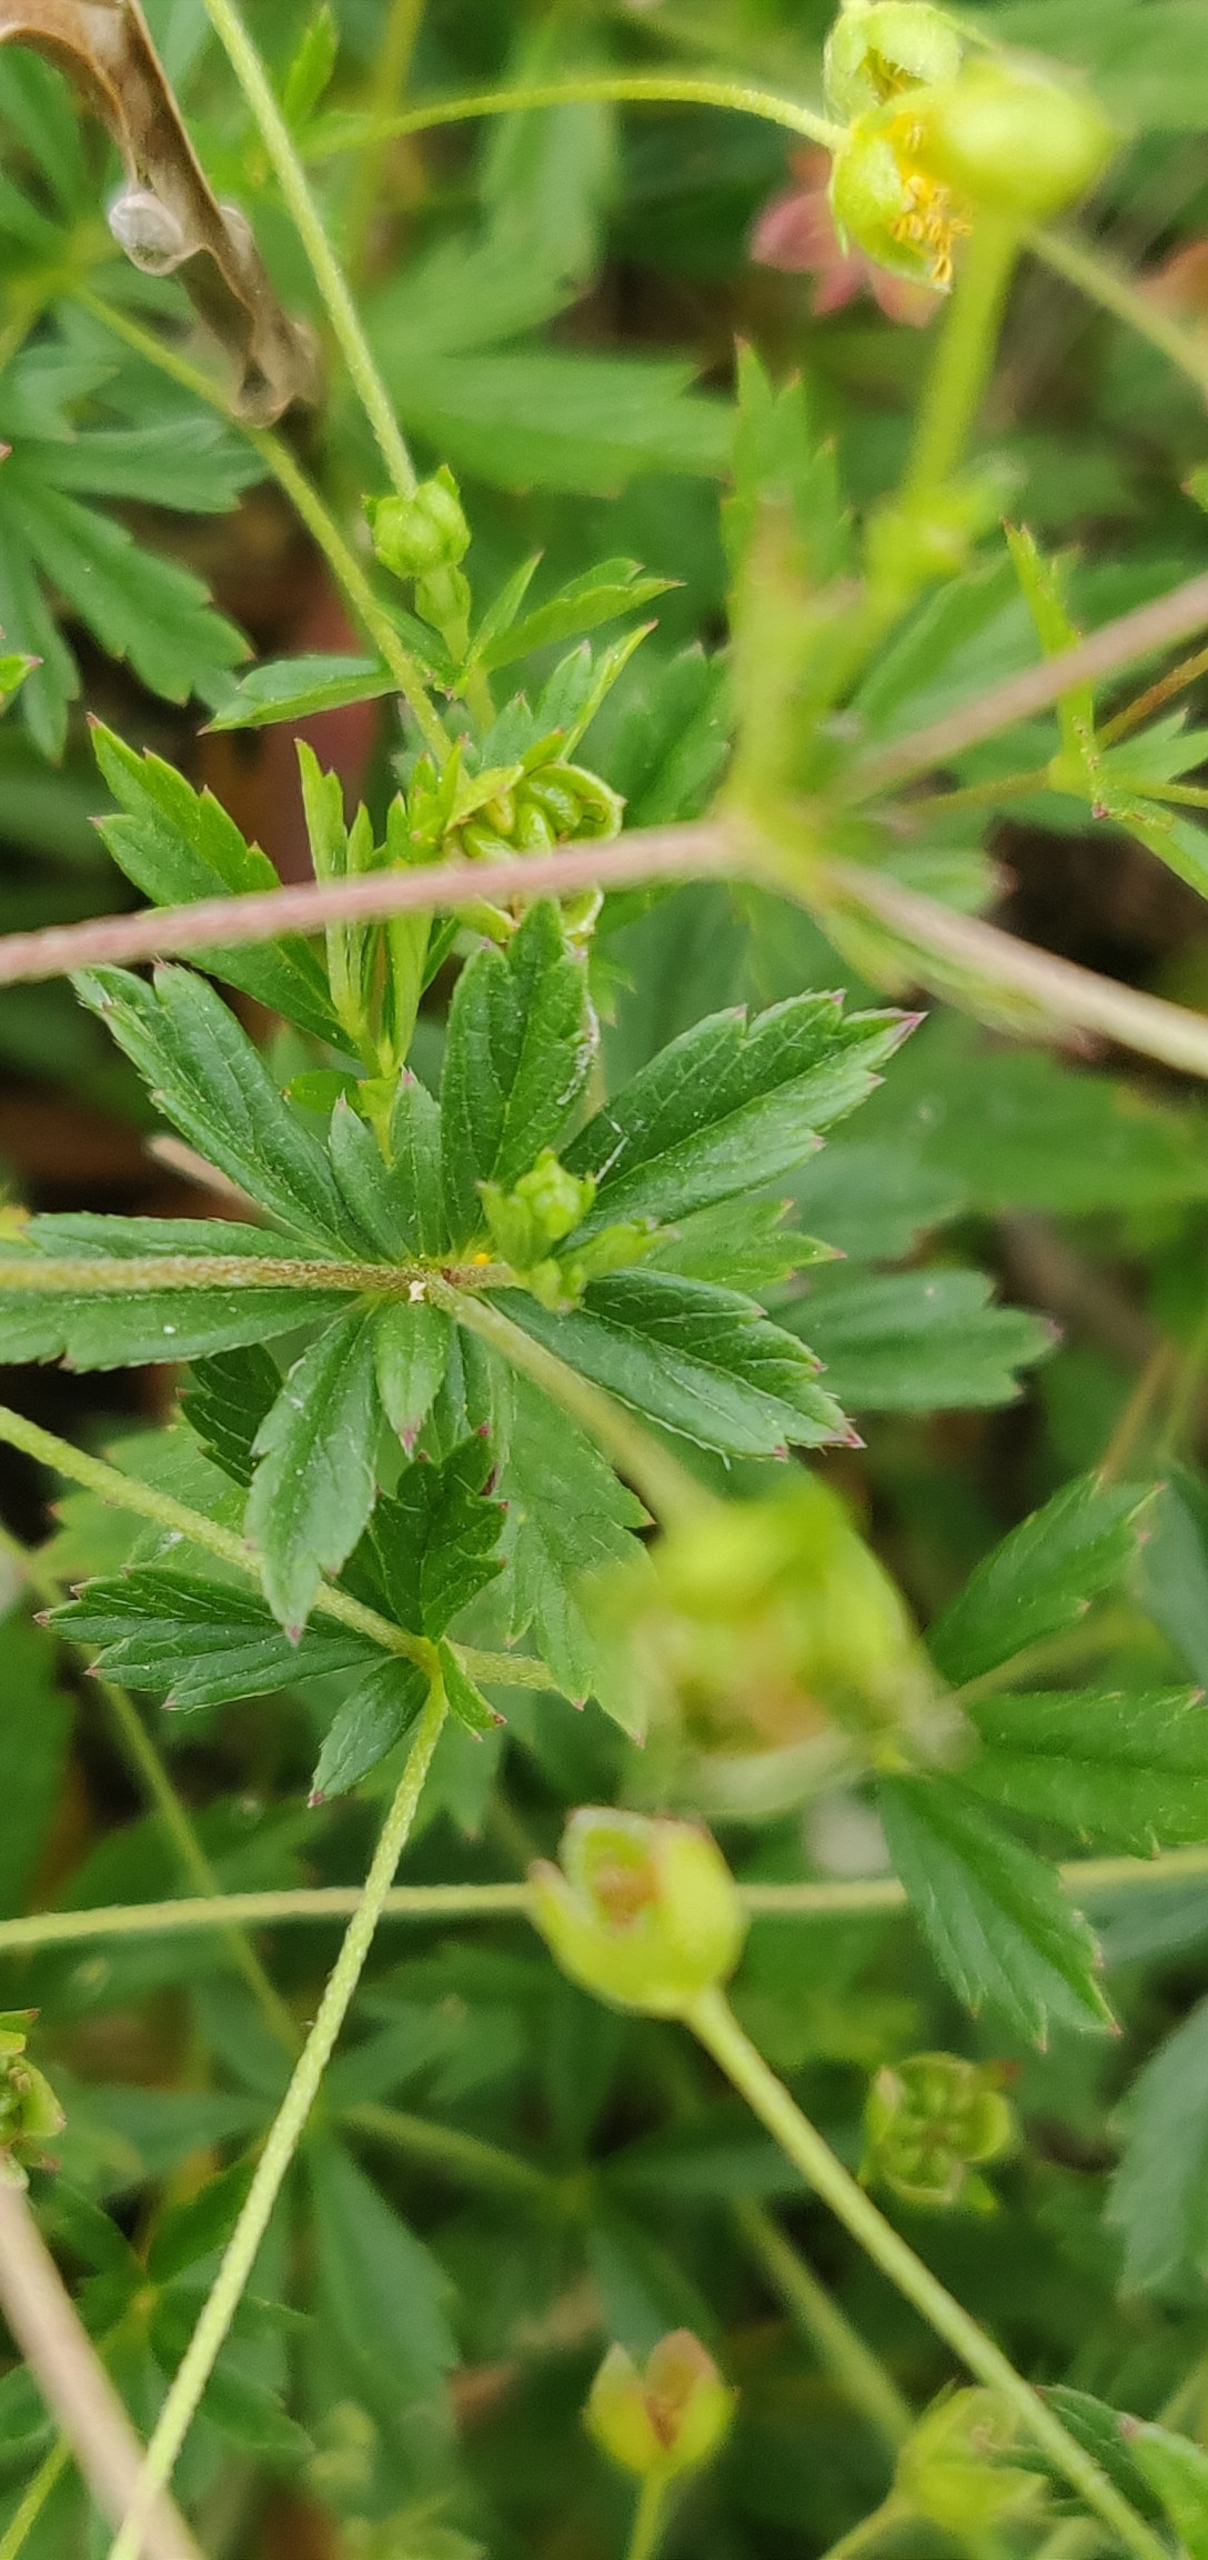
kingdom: Plantae
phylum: Tracheophyta
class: Magnoliopsida
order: Rosales
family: Rosaceae
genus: Potentilla
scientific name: Potentilla erecta
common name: Tormentil
